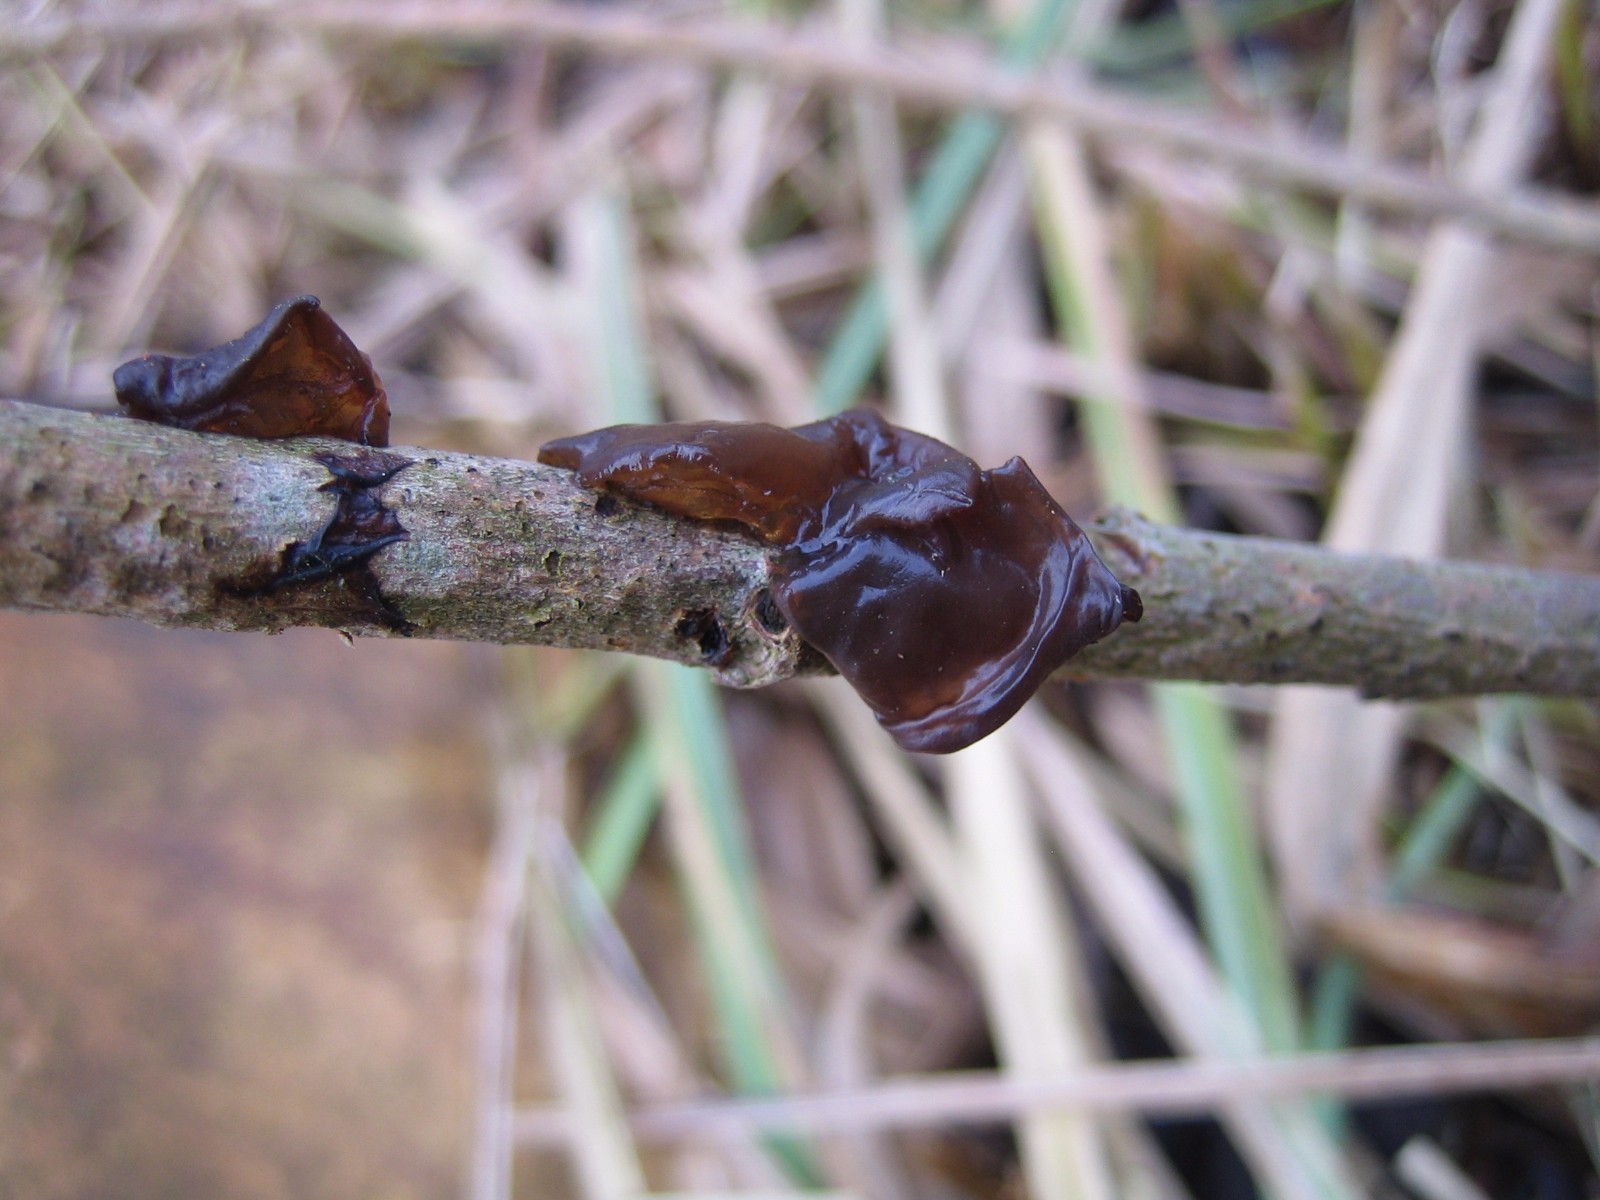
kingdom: Fungi
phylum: Basidiomycota
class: Agaricomycetes
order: Auriculariales
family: Auriculariaceae
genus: Exidia
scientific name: Exidia recisa
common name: pile-bævretop
